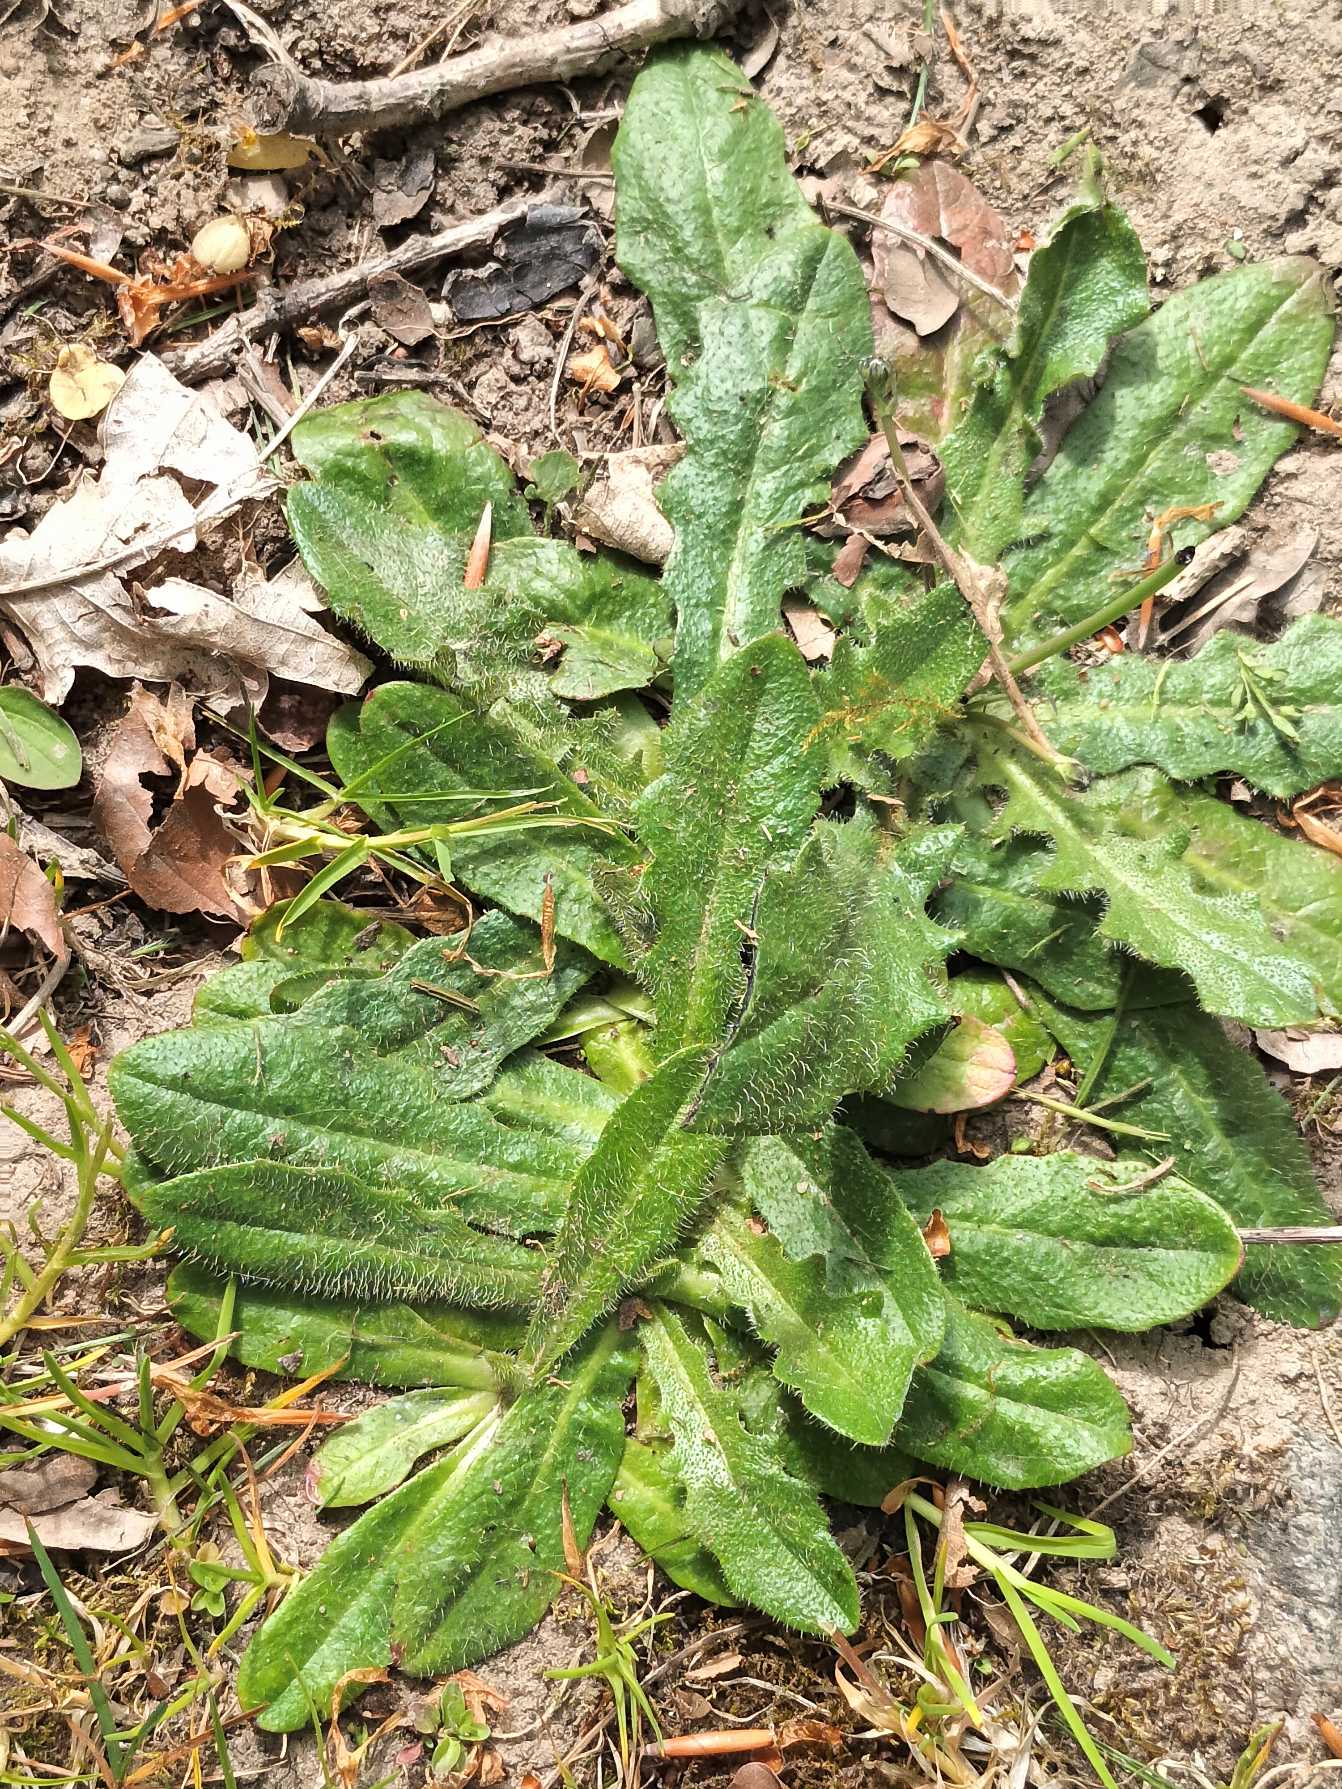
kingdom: Plantae
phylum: Tracheophyta
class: Magnoliopsida
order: Asterales
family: Asteraceae
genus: Hypochaeris
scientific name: Hypochaeris radicata
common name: Almindelig kongepen
